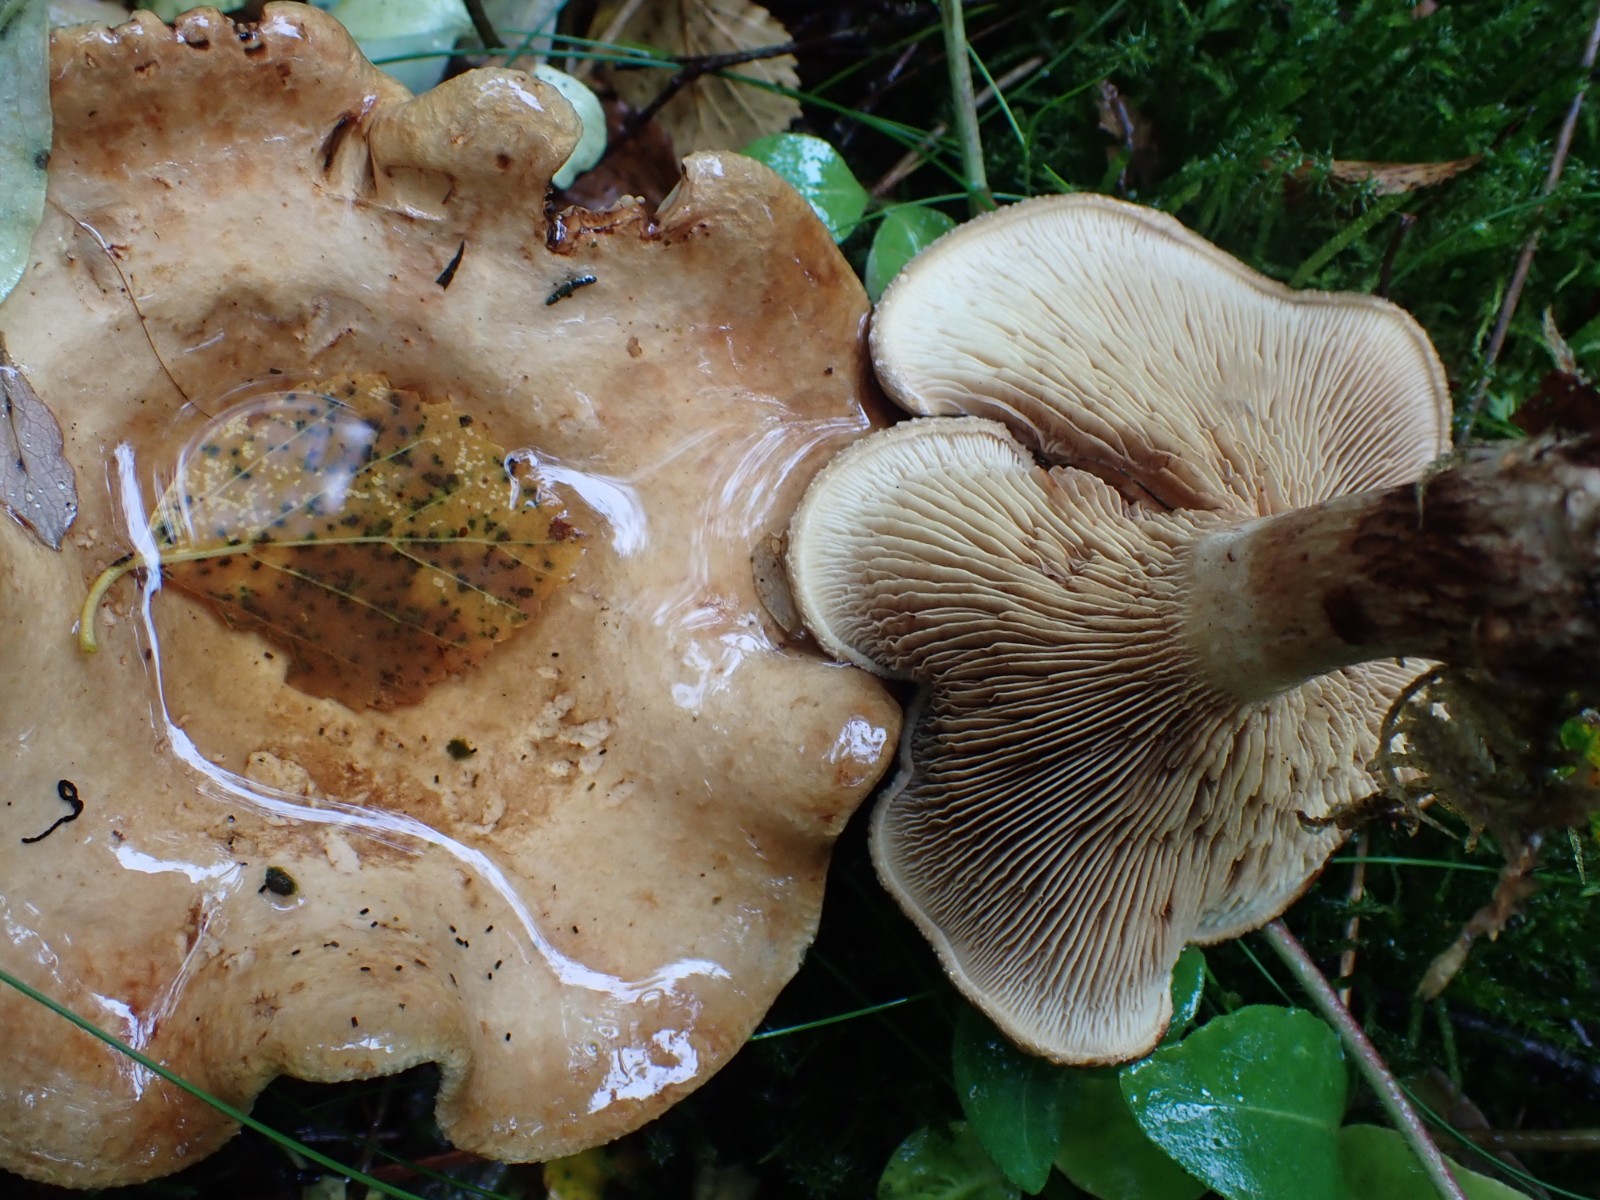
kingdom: Fungi
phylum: Basidiomycota
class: Agaricomycetes
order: Boletales
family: Paxillaceae
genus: Paxillus
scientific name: Paxillus involutus
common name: almindelig netbladhat
